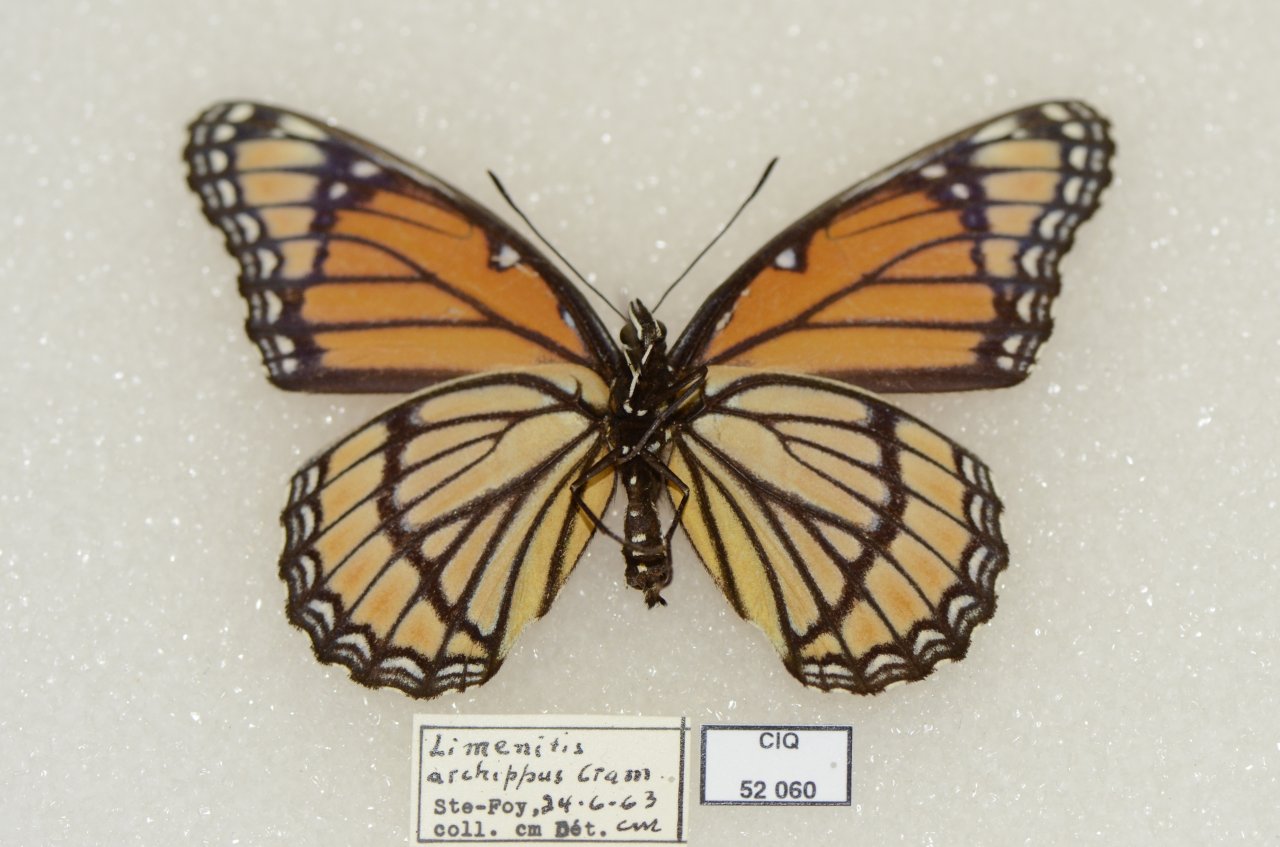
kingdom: Animalia
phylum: Arthropoda
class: Insecta
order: Lepidoptera
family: Nymphalidae
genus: Limenitis
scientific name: Limenitis archippus
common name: Viceroy
